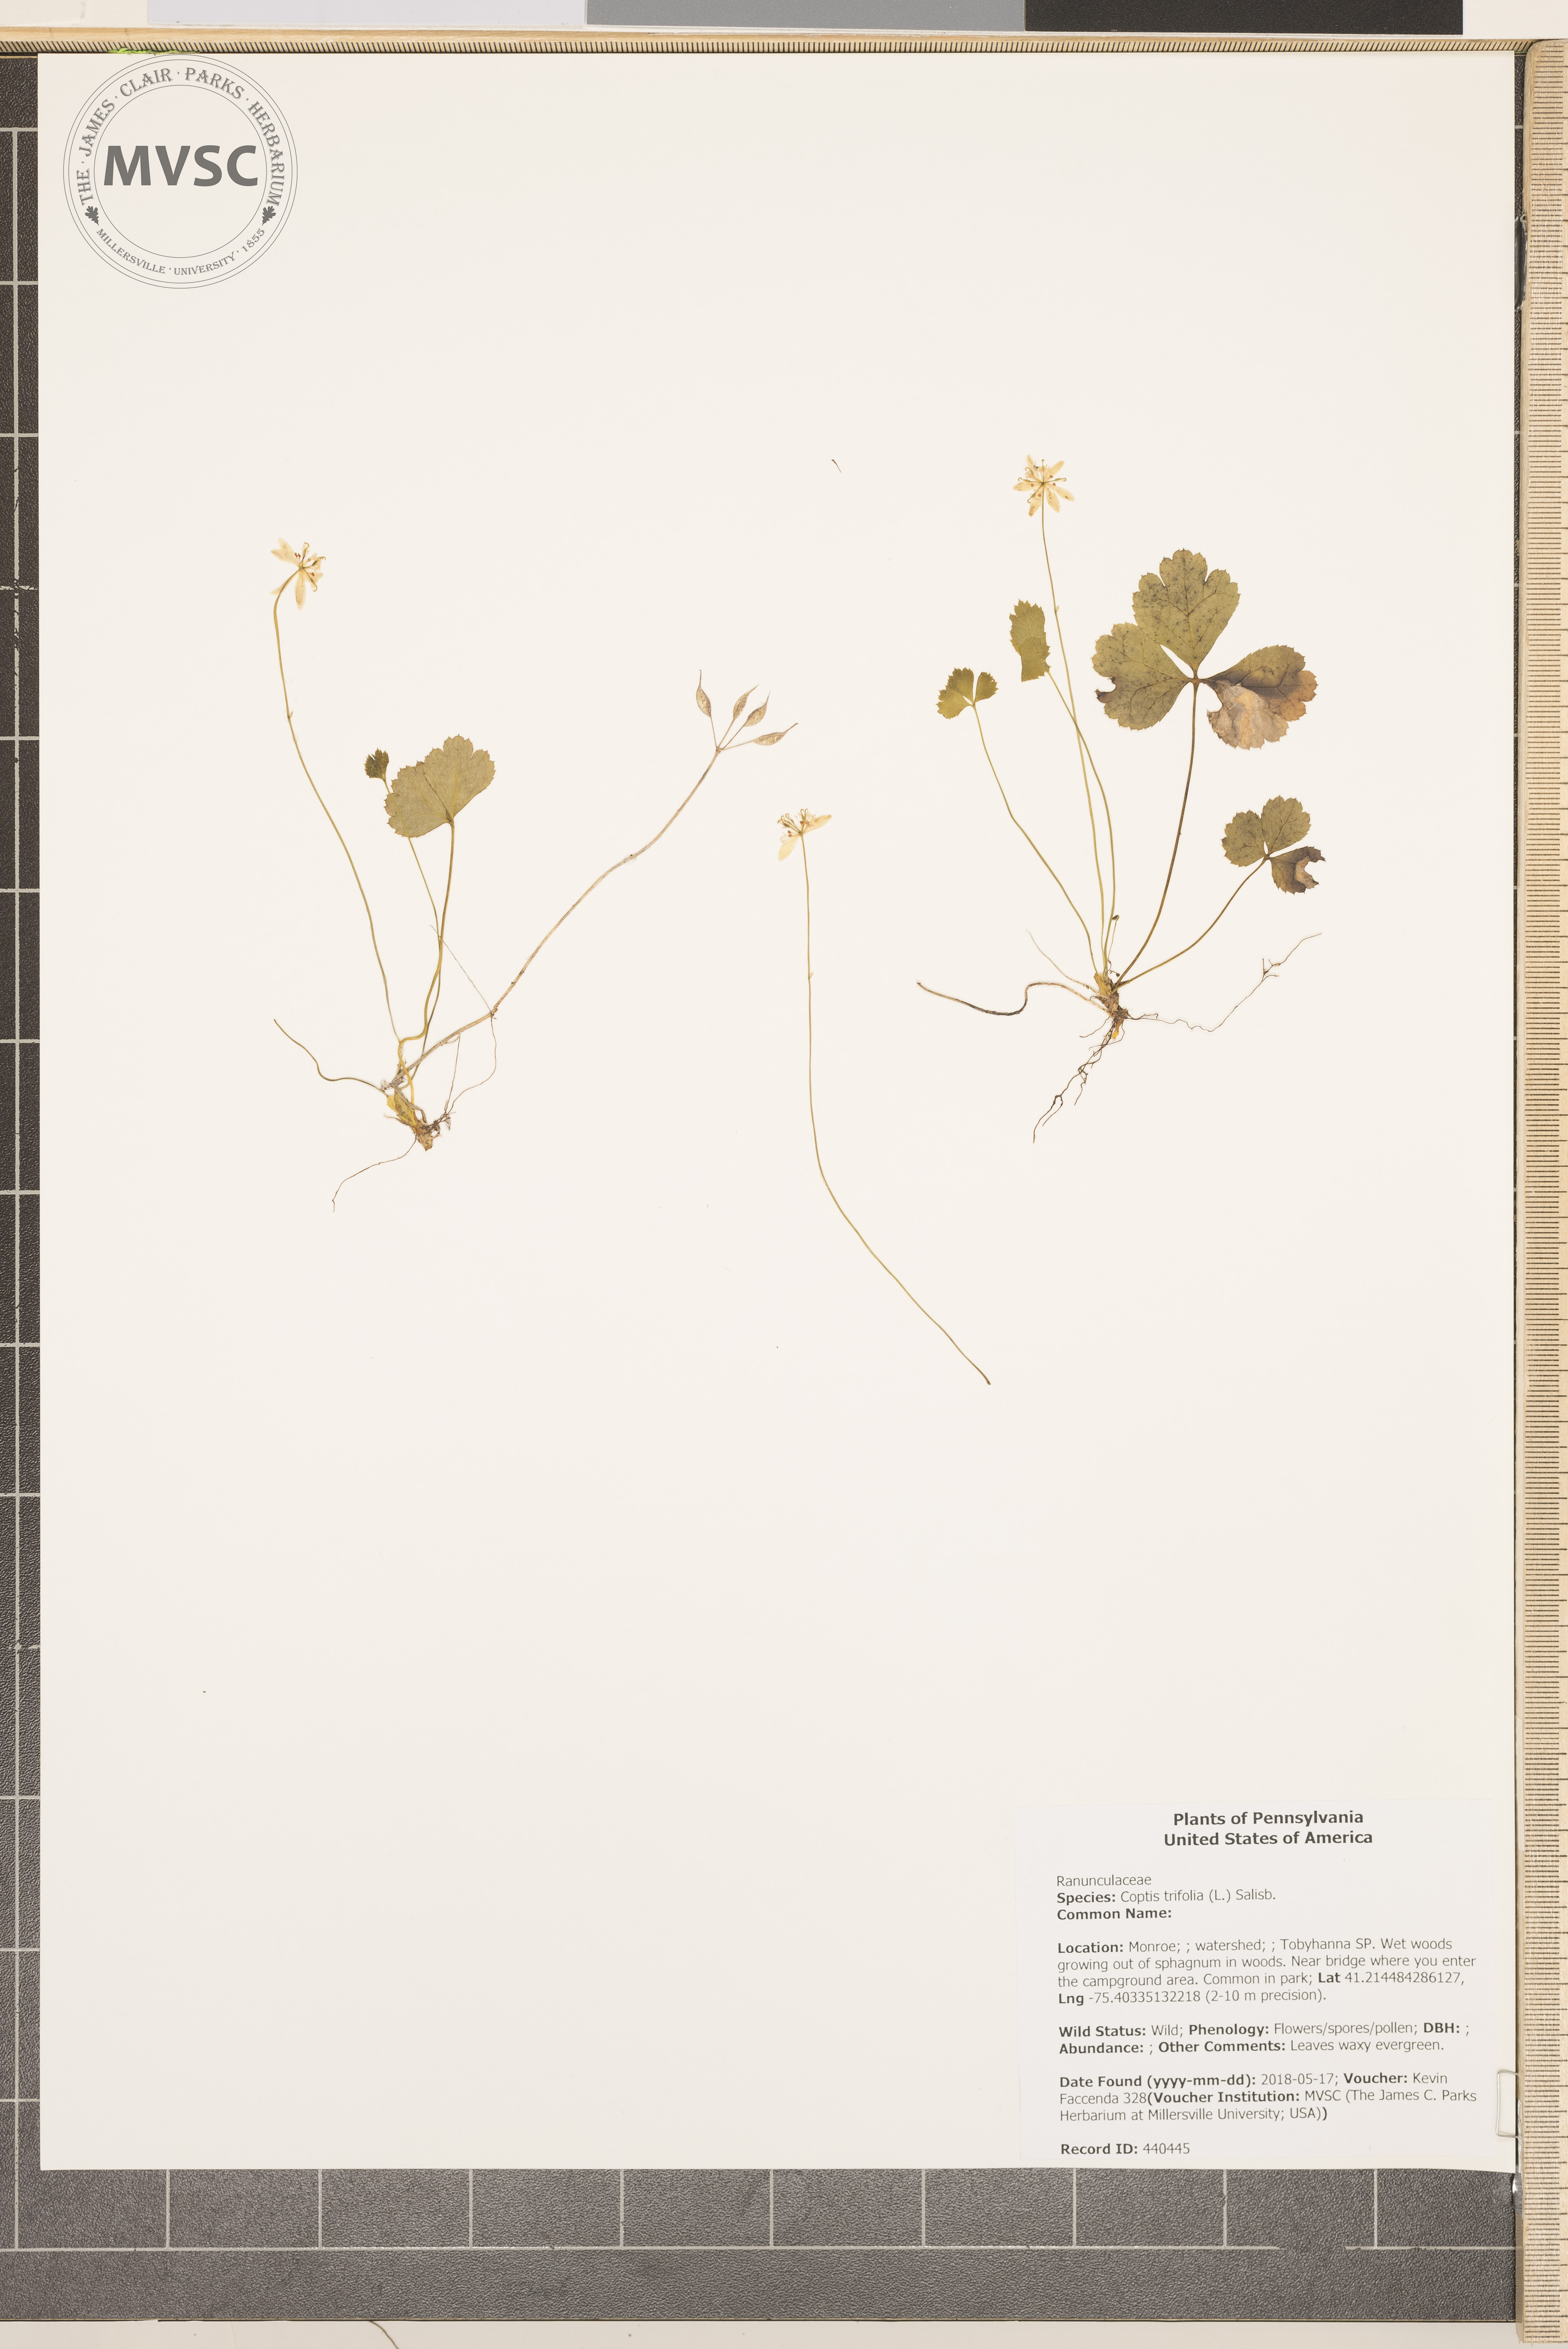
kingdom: Plantae
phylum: Tracheophyta
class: Magnoliopsida
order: Ranunculales
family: Ranunculaceae
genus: Coptis
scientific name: Coptis trifolia
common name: Canker-root
